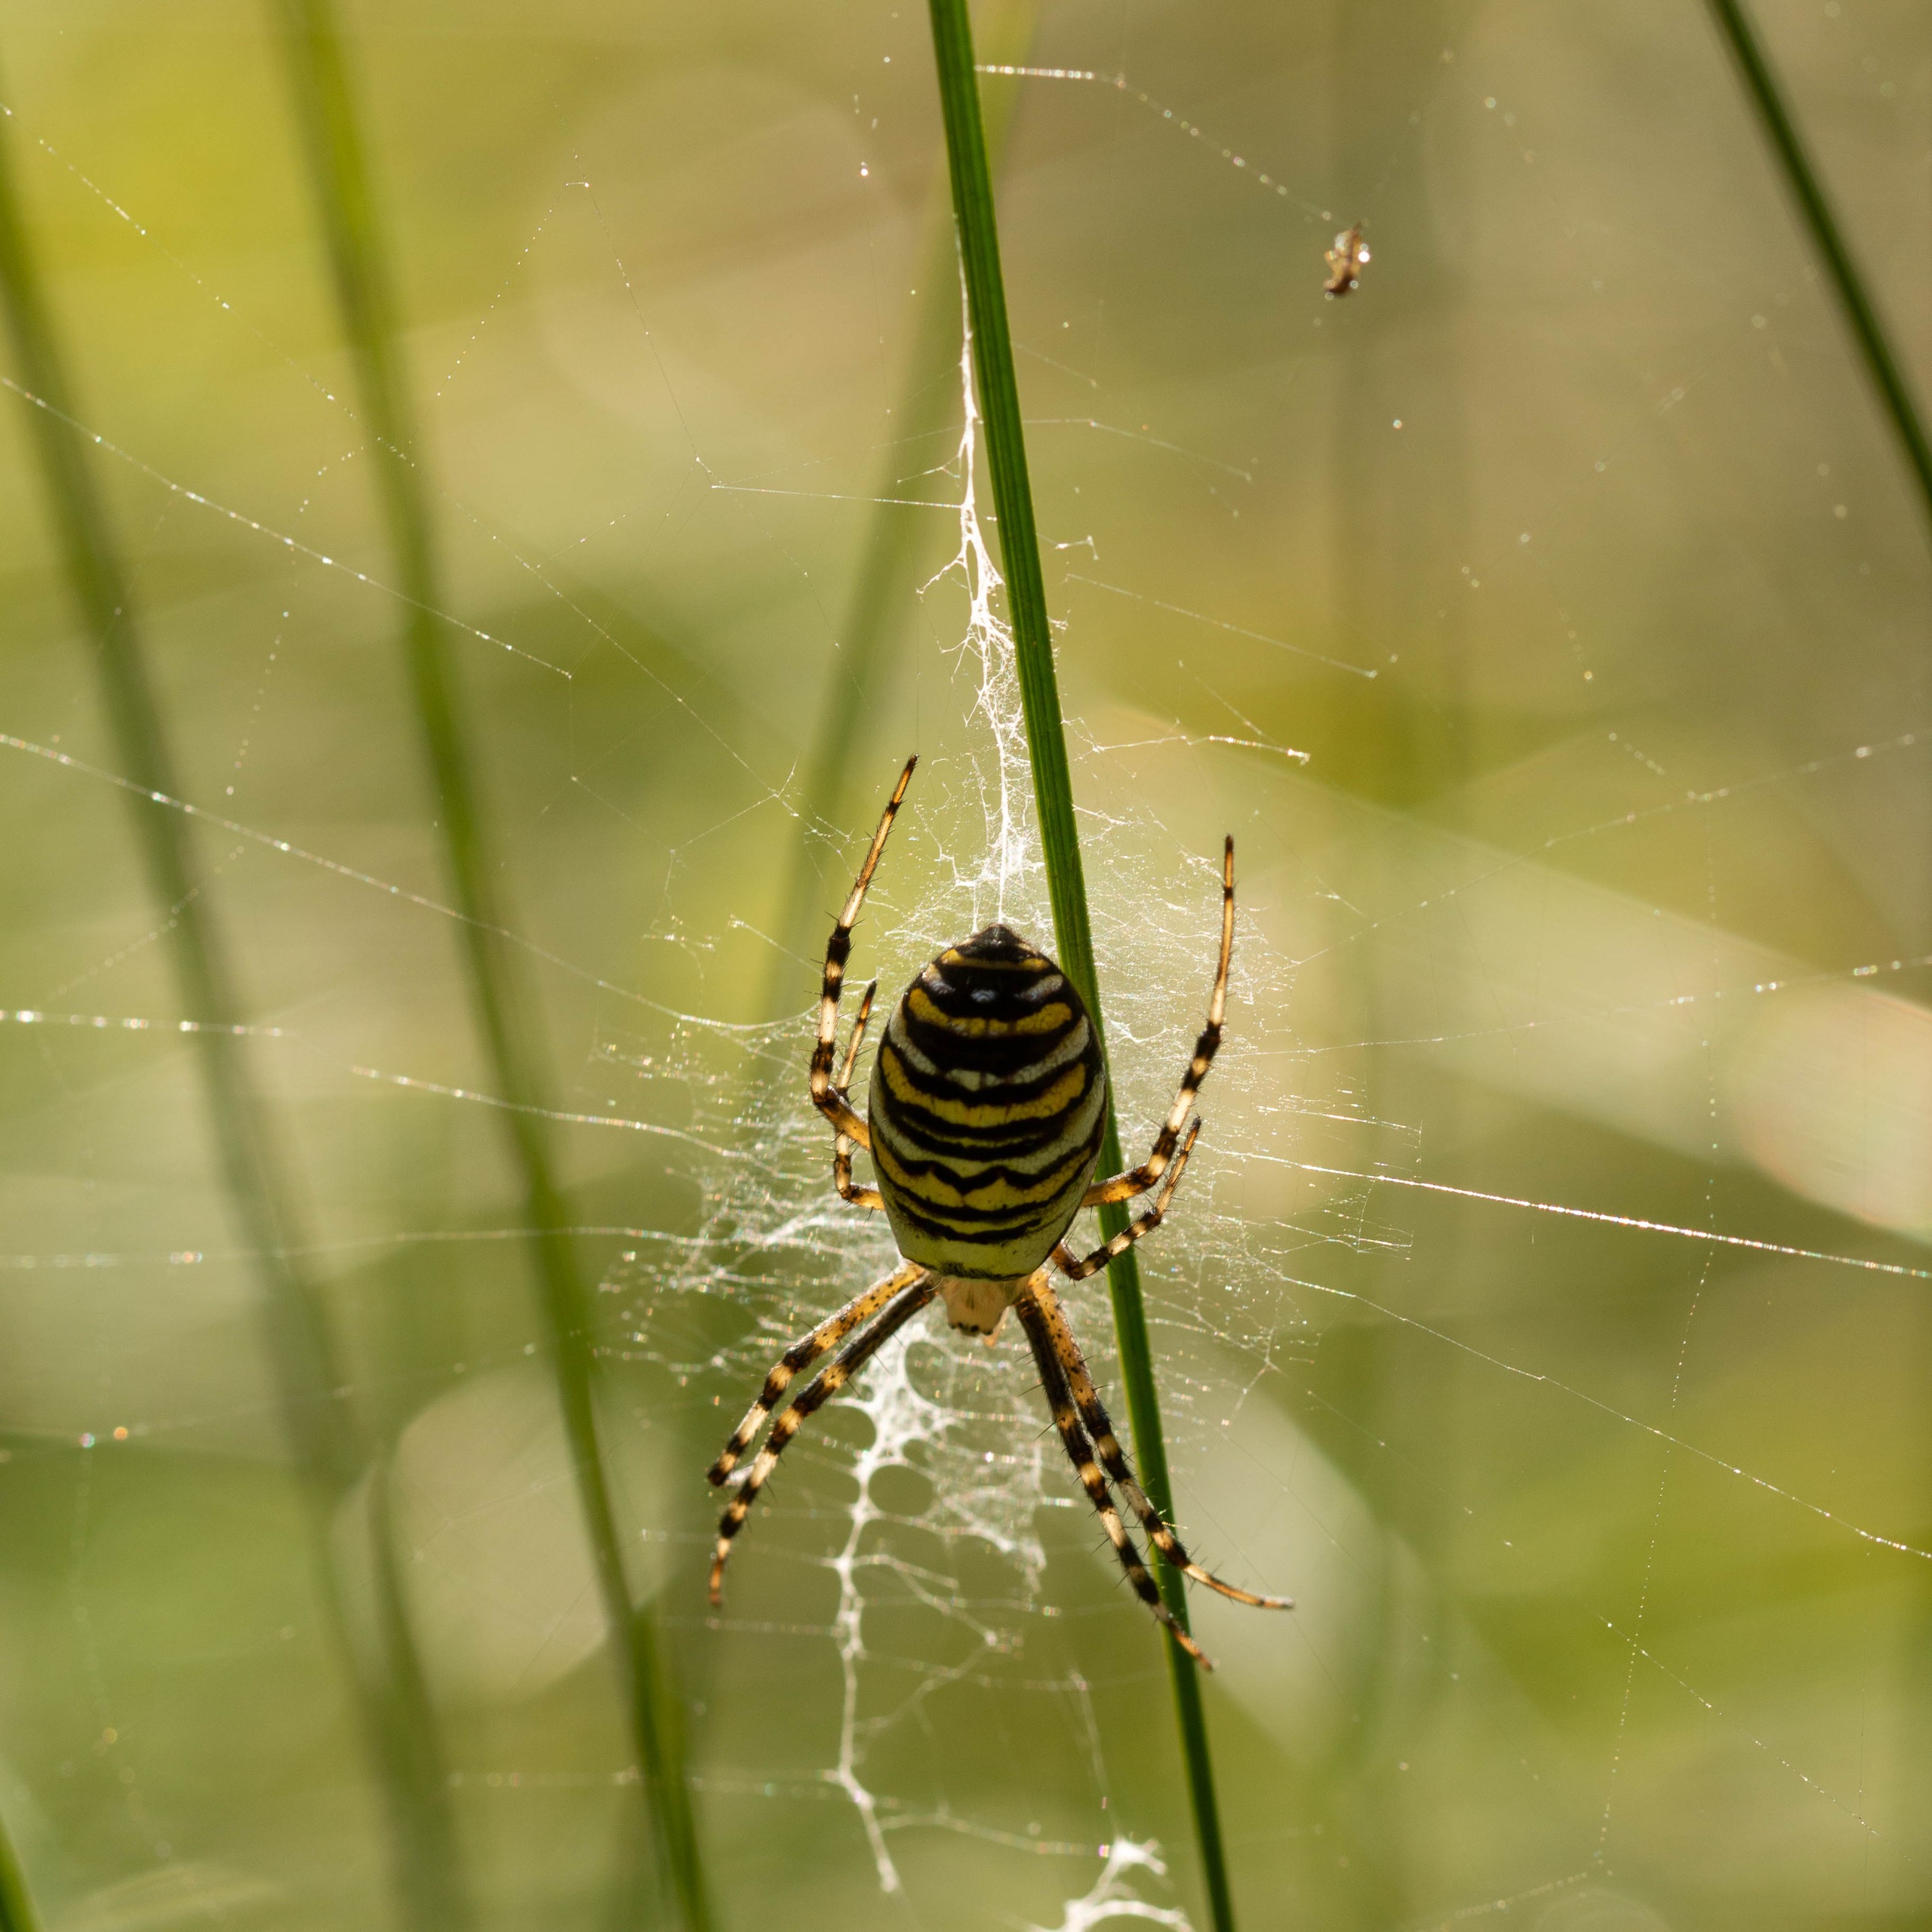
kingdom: Animalia
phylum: Arthropoda
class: Arachnida
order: Araneae
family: Araneidae
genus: Argiope
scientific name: Argiope bruennichi
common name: Hvepseedderkop
